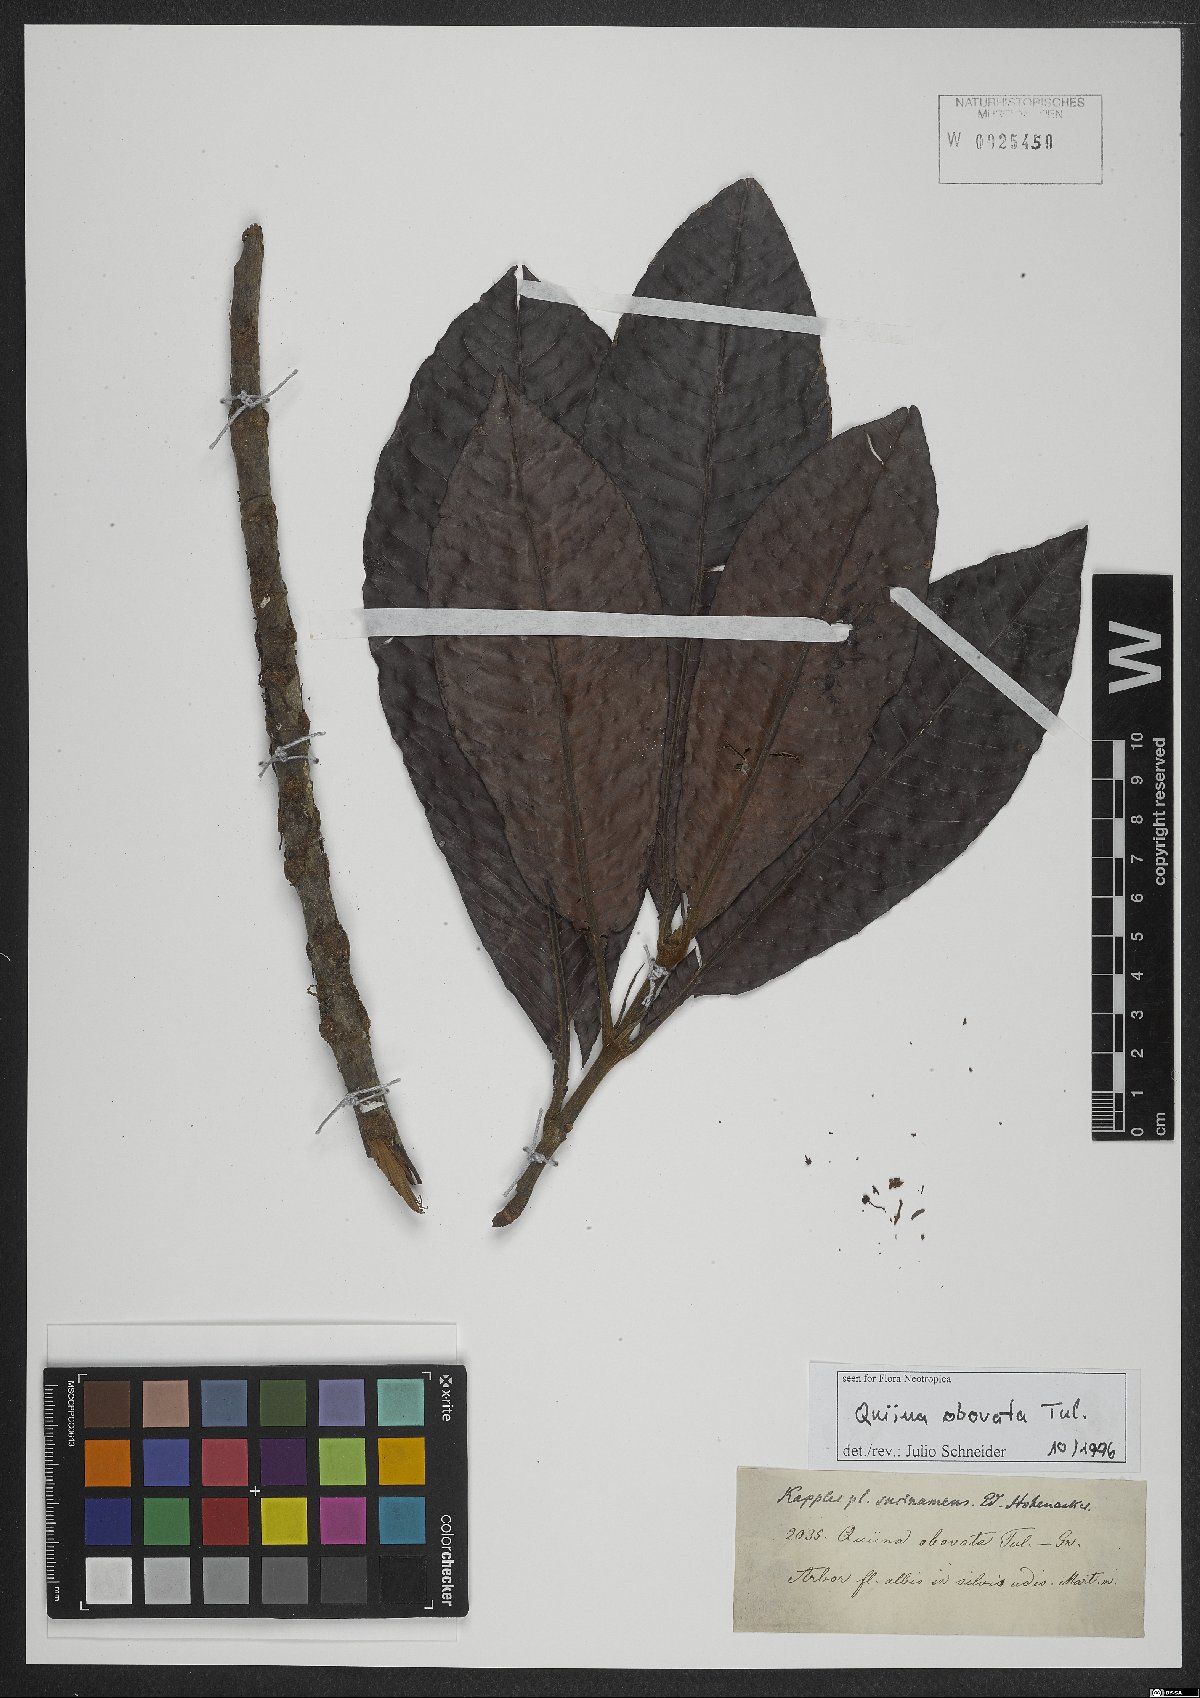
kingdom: Plantae
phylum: Tracheophyta
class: Magnoliopsida
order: Malpighiales
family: Quiinaceae
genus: Quiina
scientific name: Quiina obovata
